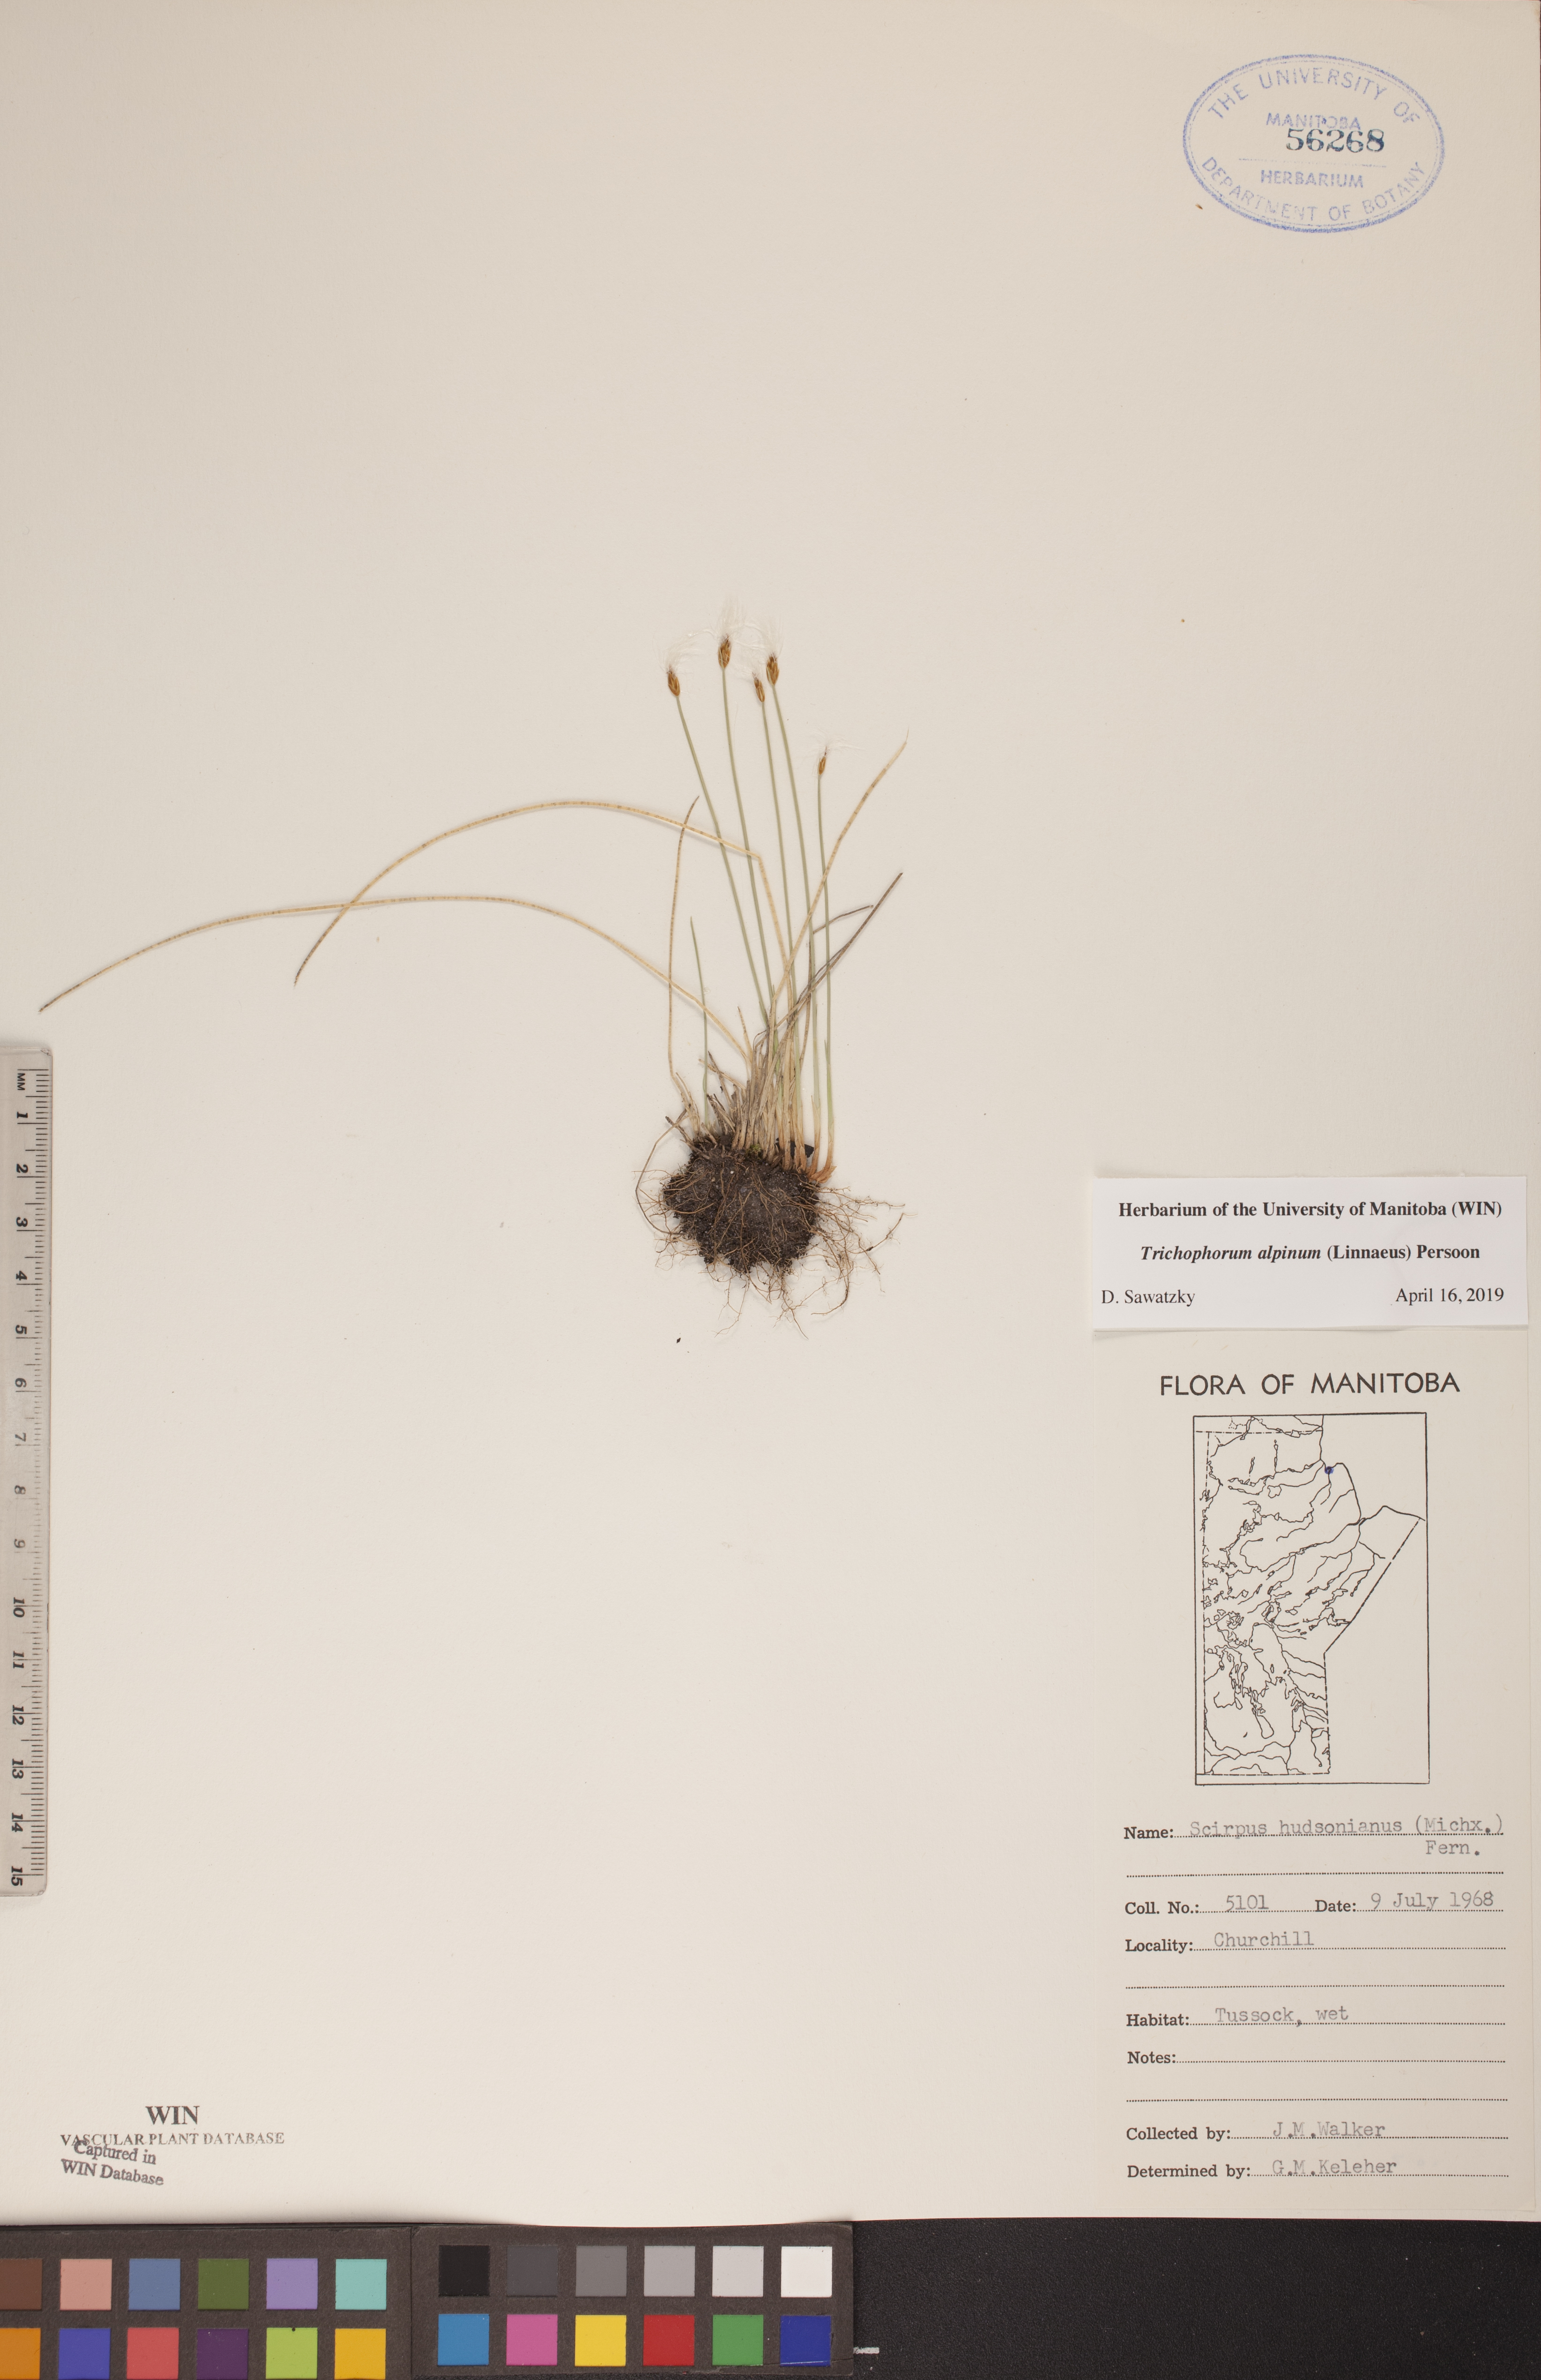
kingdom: Plantae
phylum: Tracheophyta
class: Liliopsida
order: Poales
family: Cyperaceae
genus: Trichophorum
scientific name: Trichophorum alpinum
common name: Alpine bulrush
